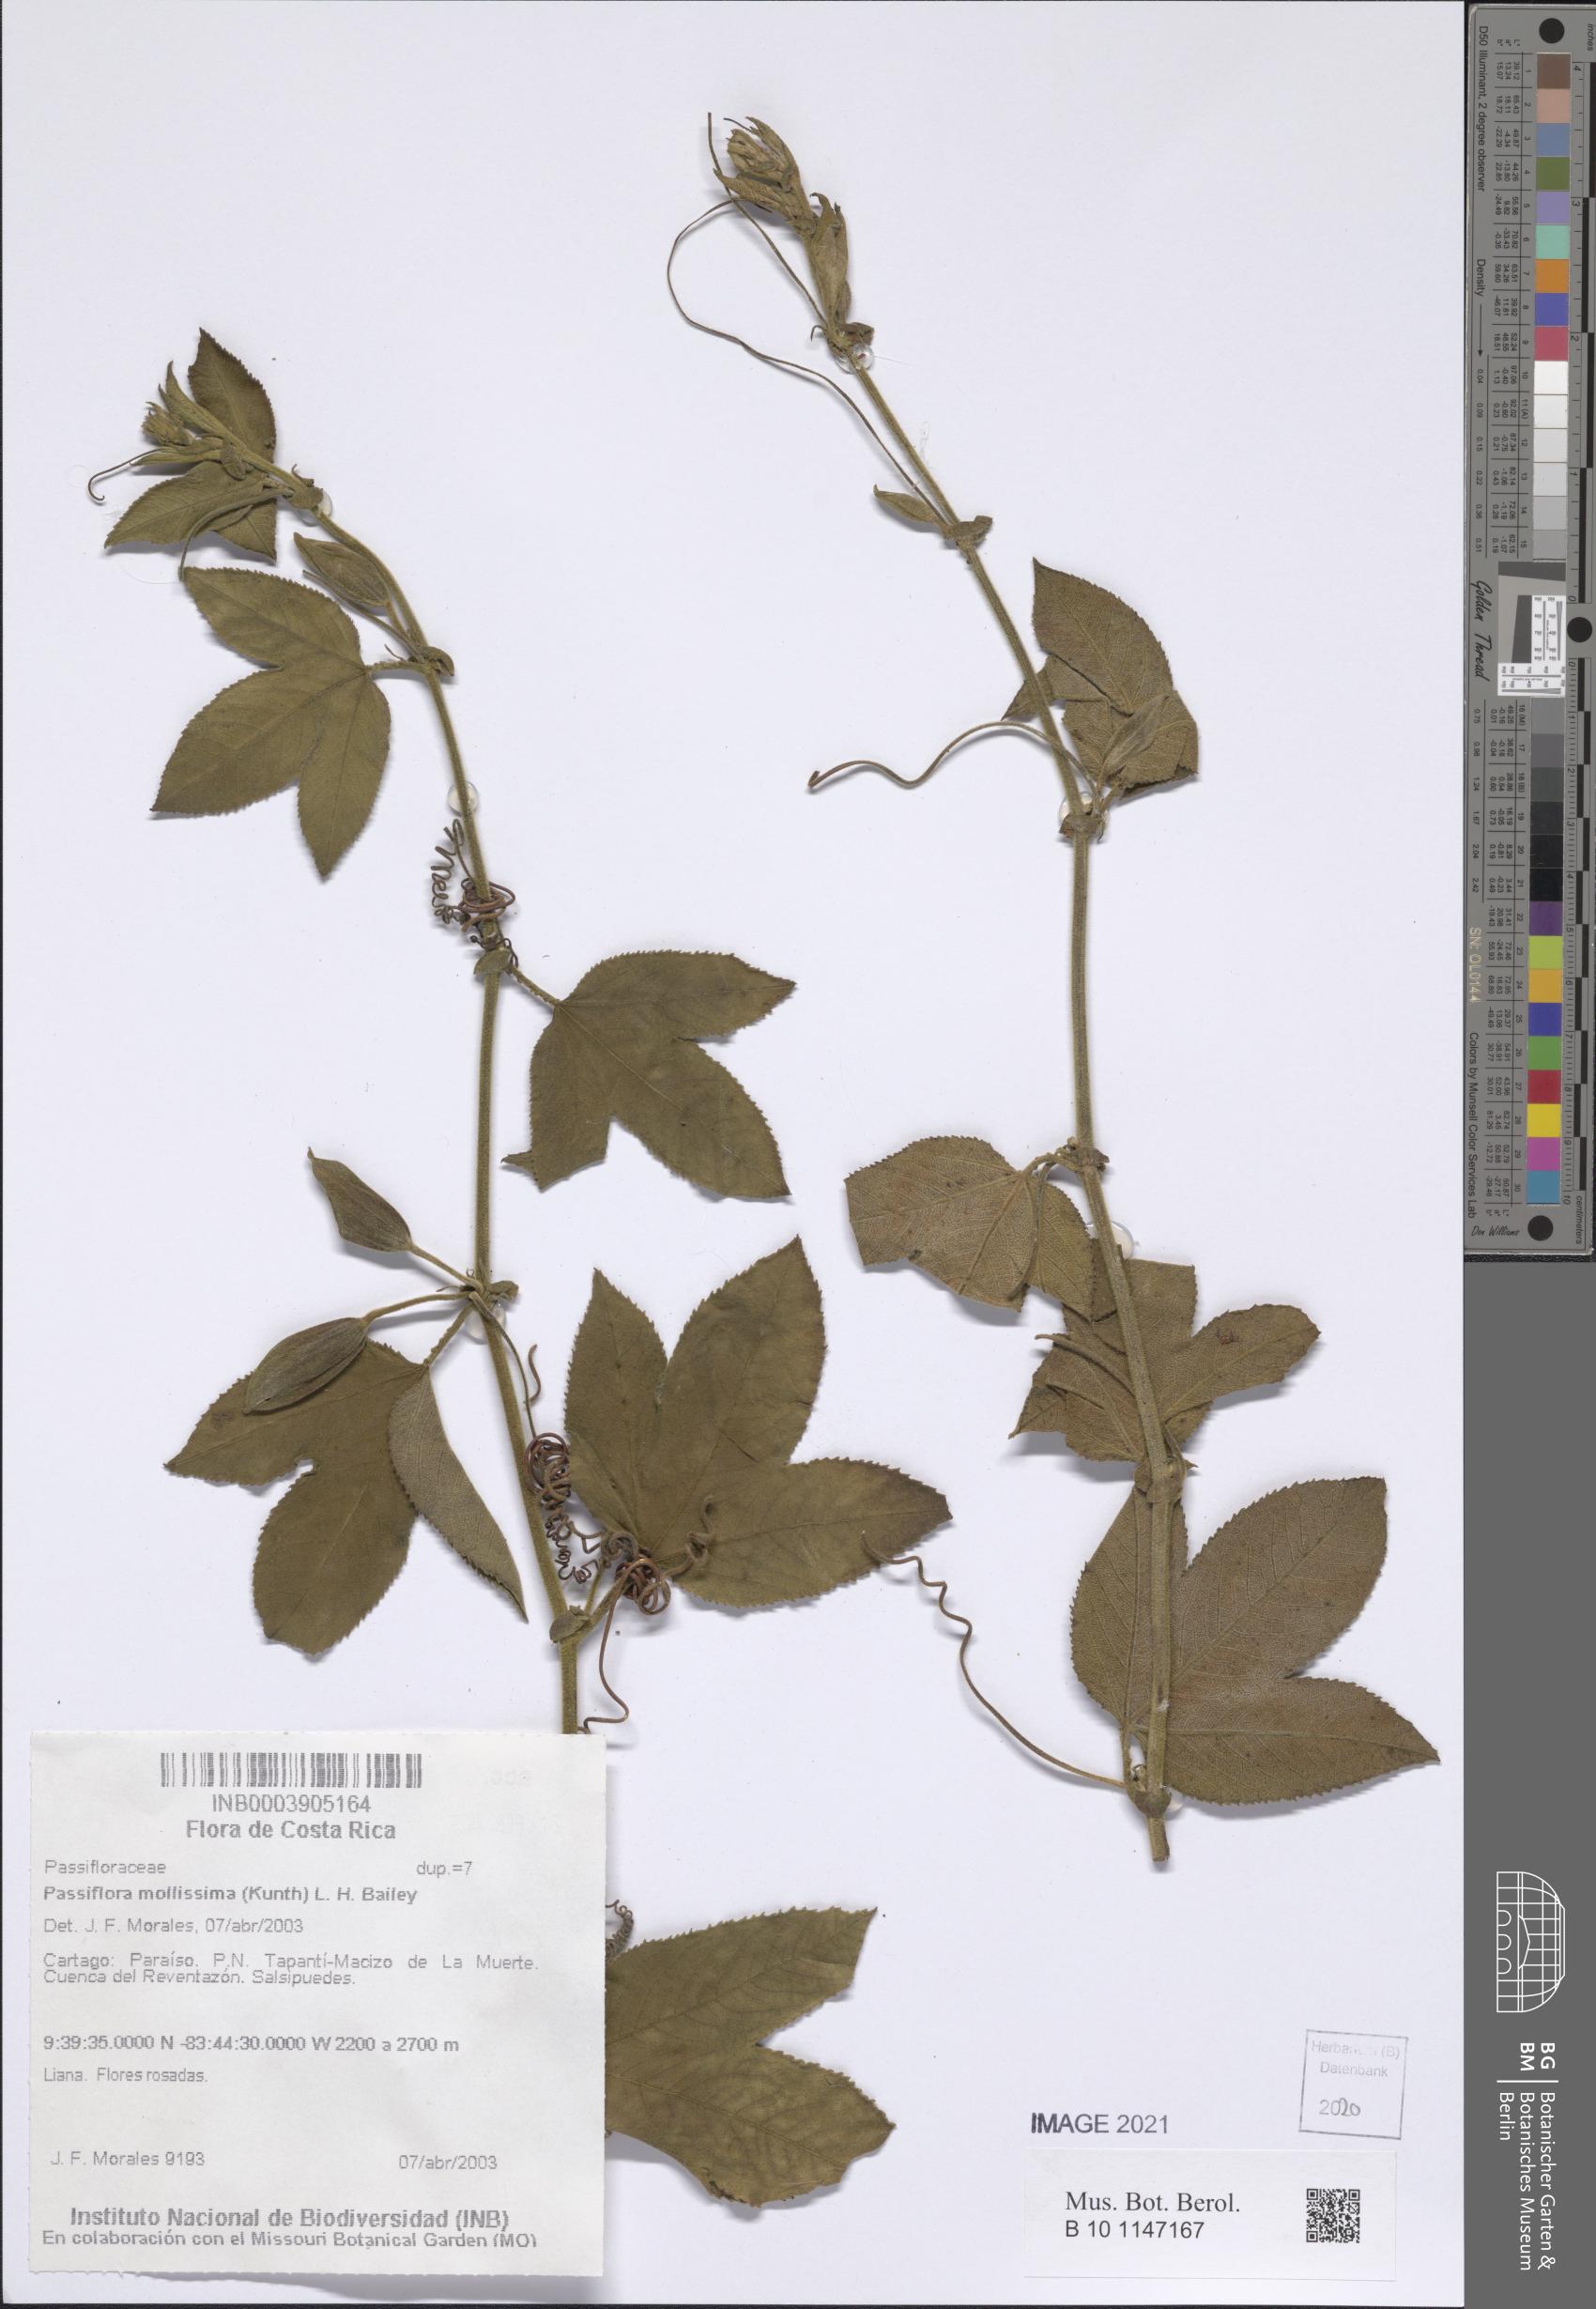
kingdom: Plantae
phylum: Tracheophyta
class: Magnoliopsida
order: Malpighiales
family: Passifloraceae
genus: Passiflora
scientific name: Passiflora tripartita
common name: Banana poka
